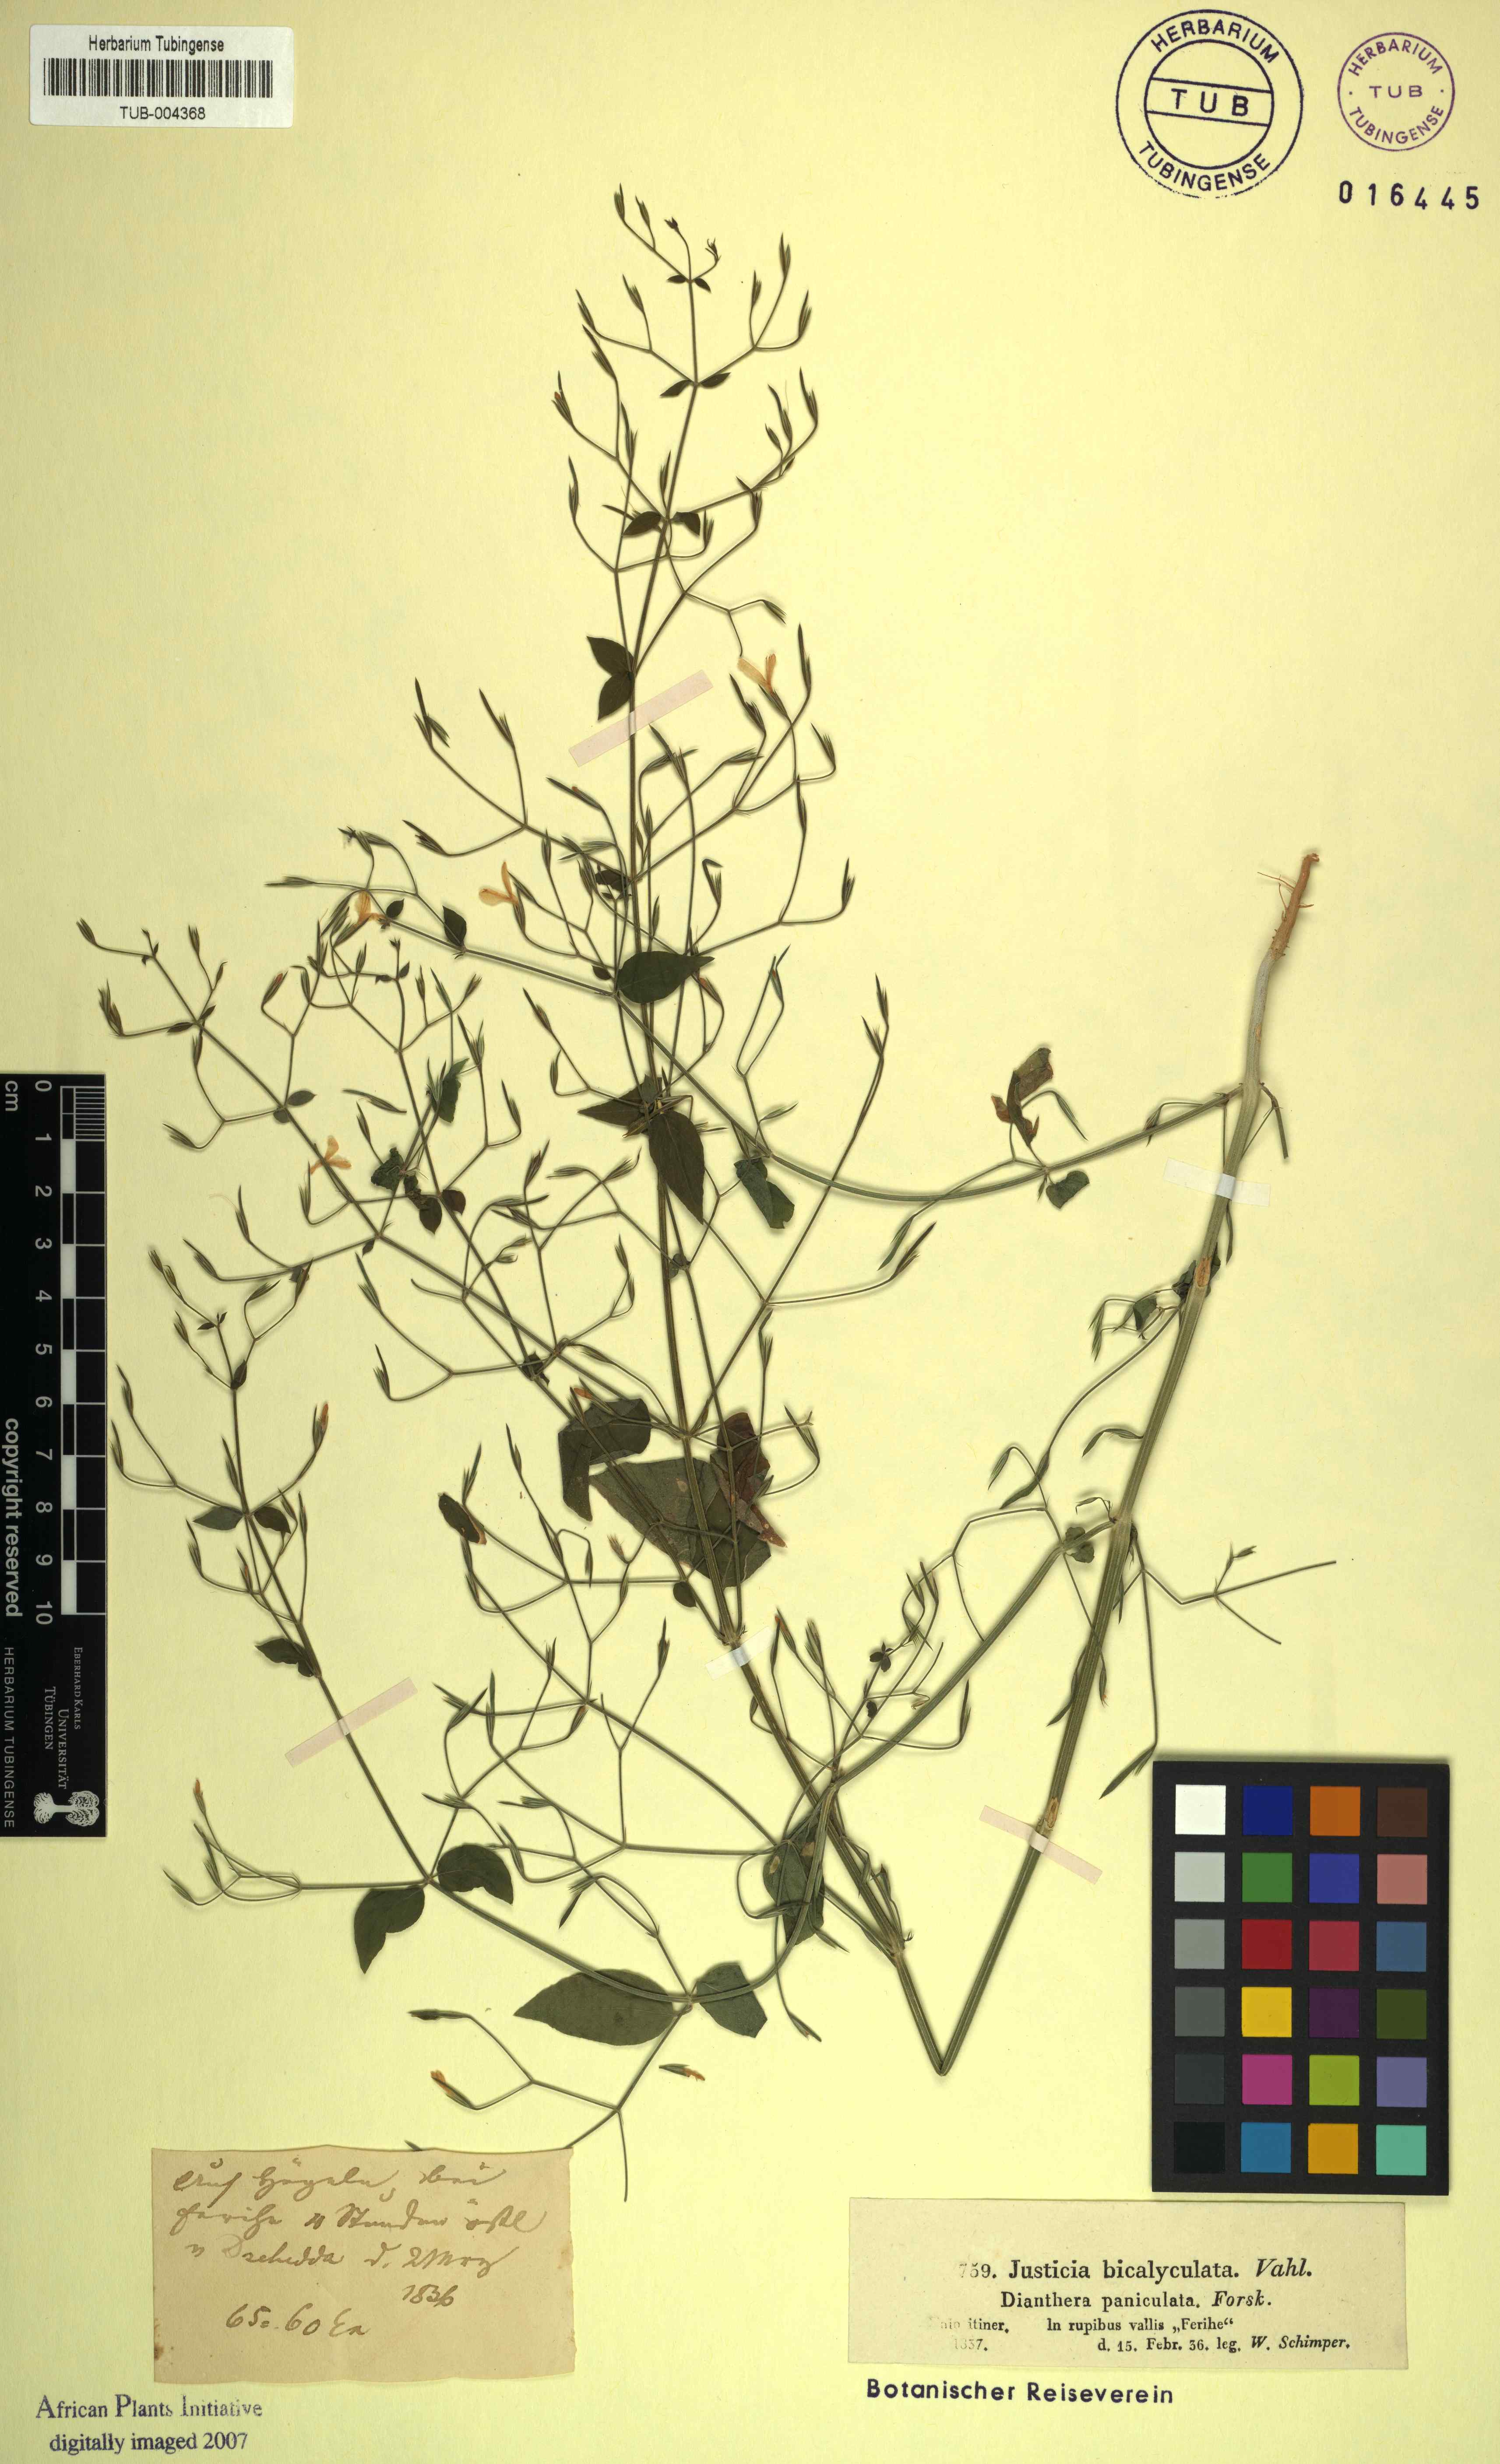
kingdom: Plantae
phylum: Tracheophyta
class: Magnoliopsida
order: Lamiales
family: Acanthaceae
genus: Dicliptera
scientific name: Dicliptera paniculata
